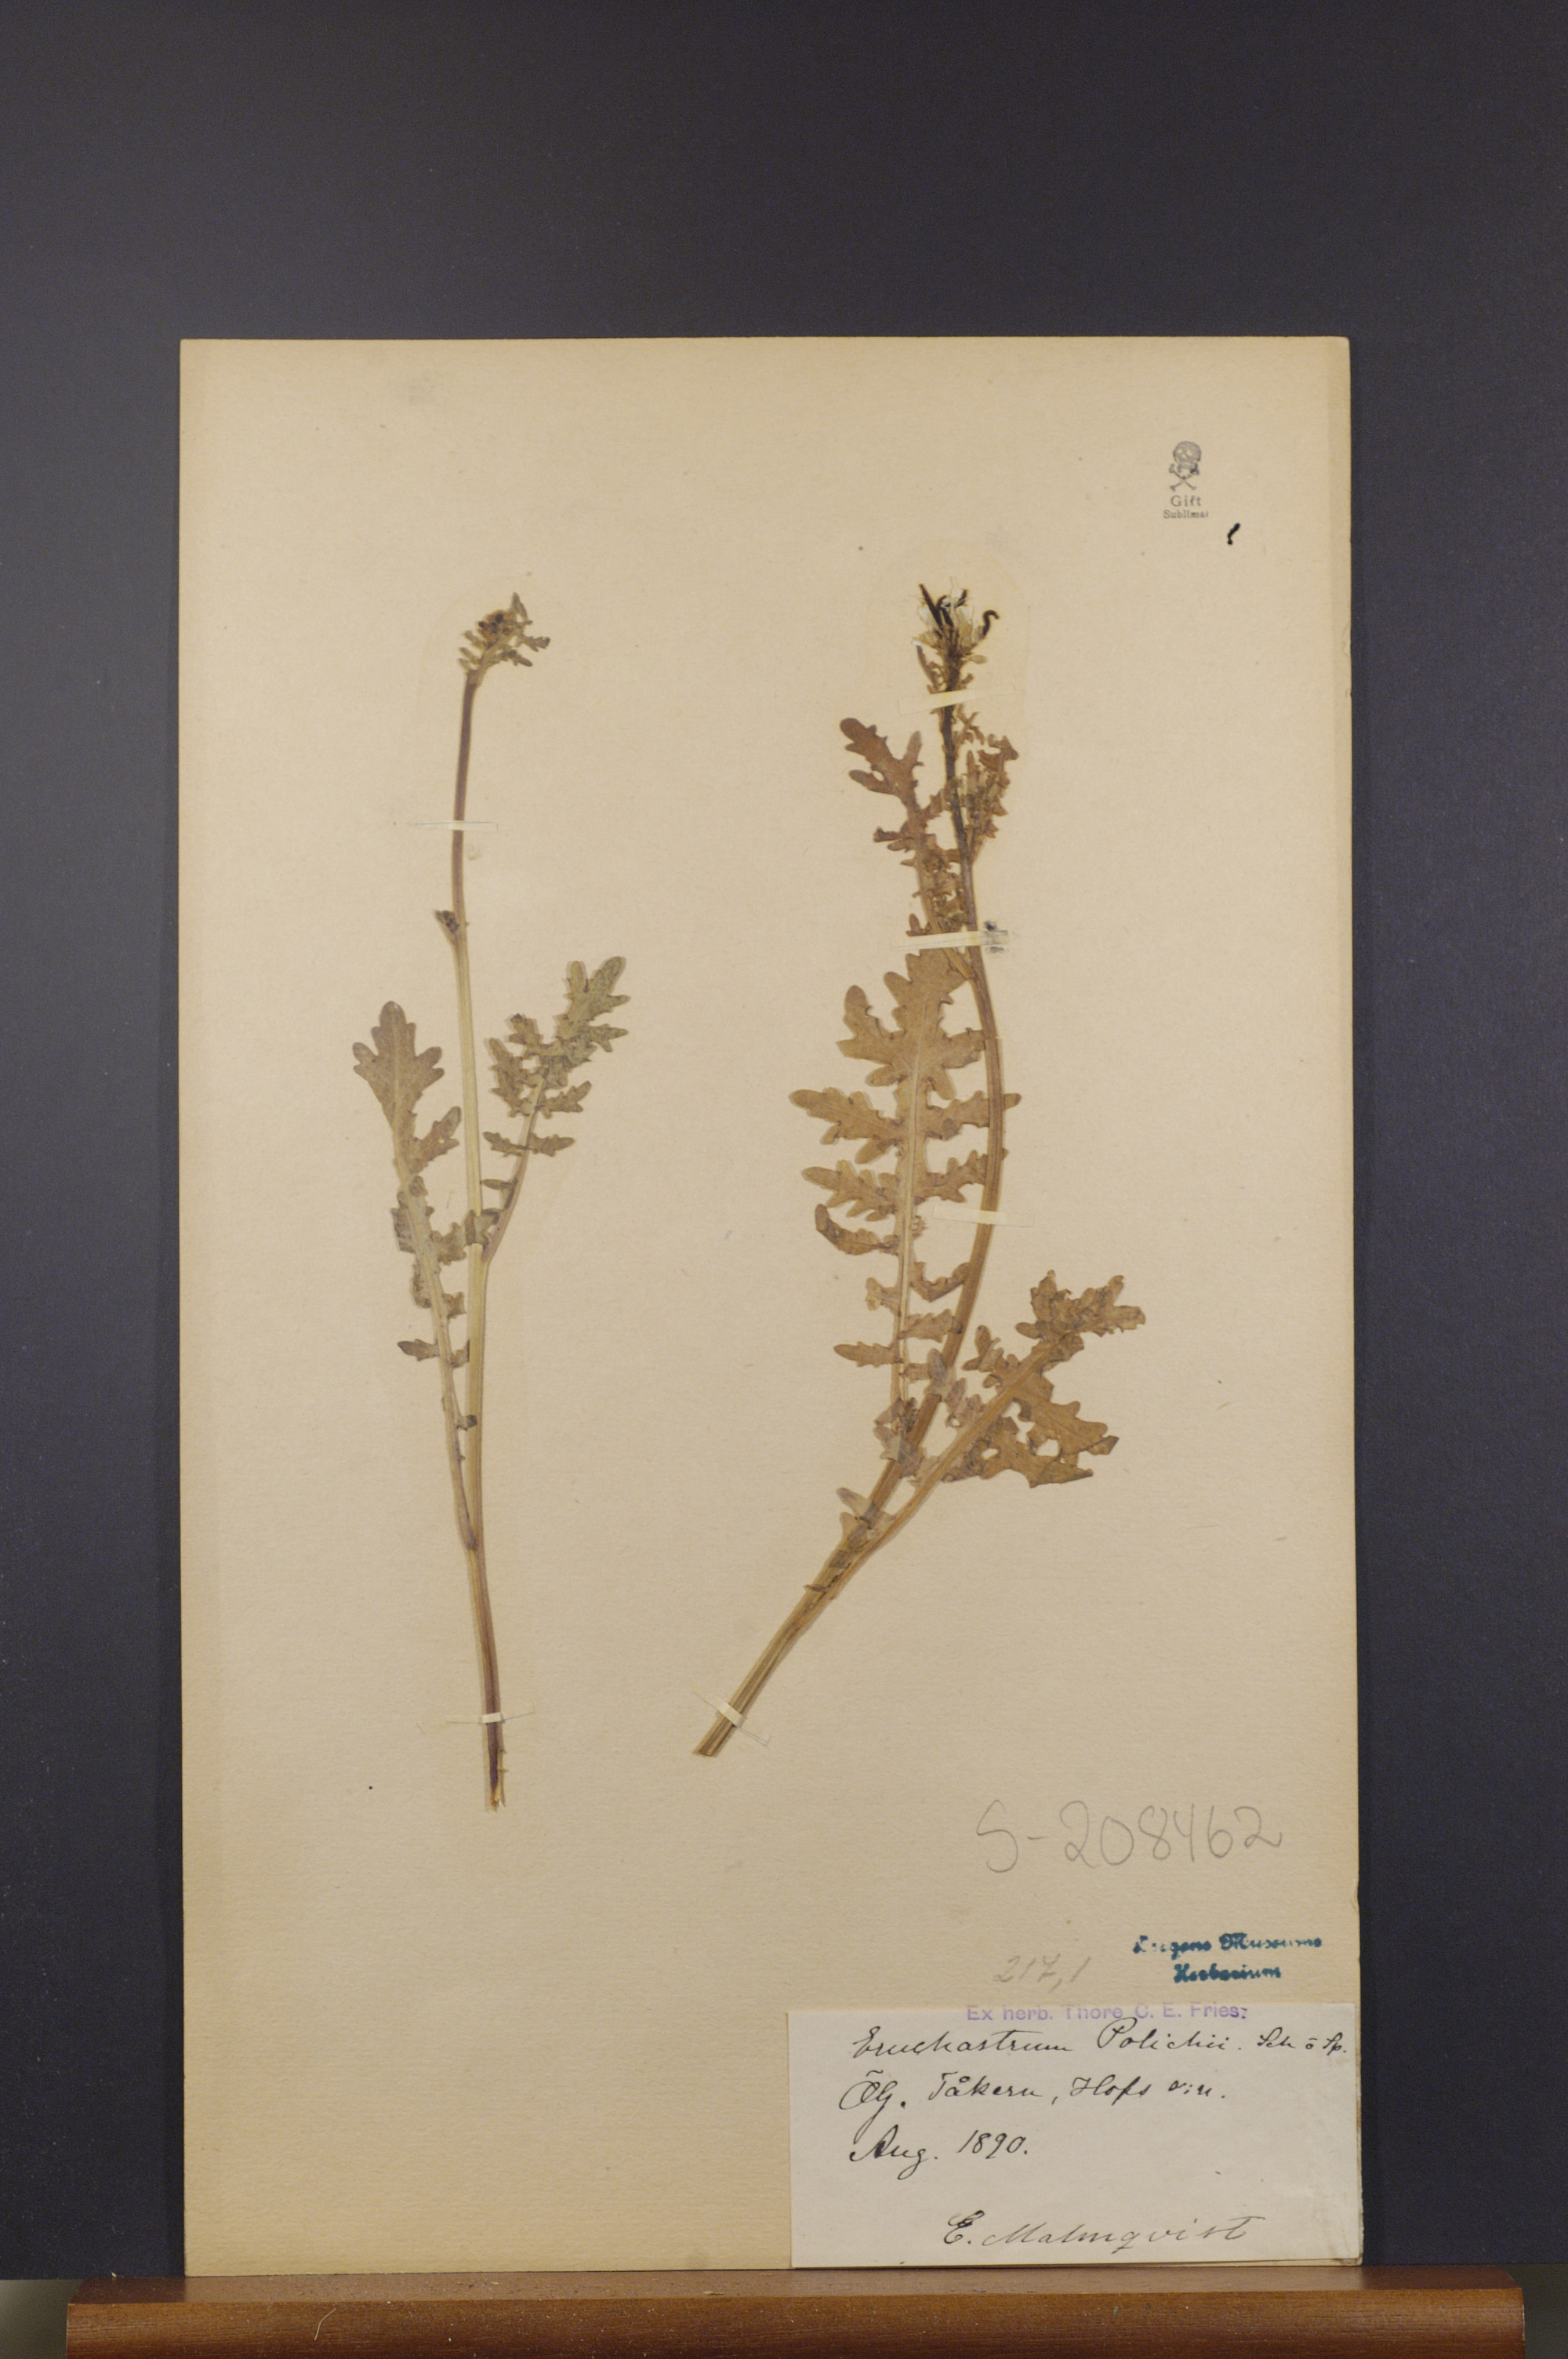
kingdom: Plantae
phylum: Tracheophyta
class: Magnoliopsida
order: Brassicales
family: Brassicaceae
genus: Erucastrum
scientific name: Erucastrum gallicum
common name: Hairy rocket
